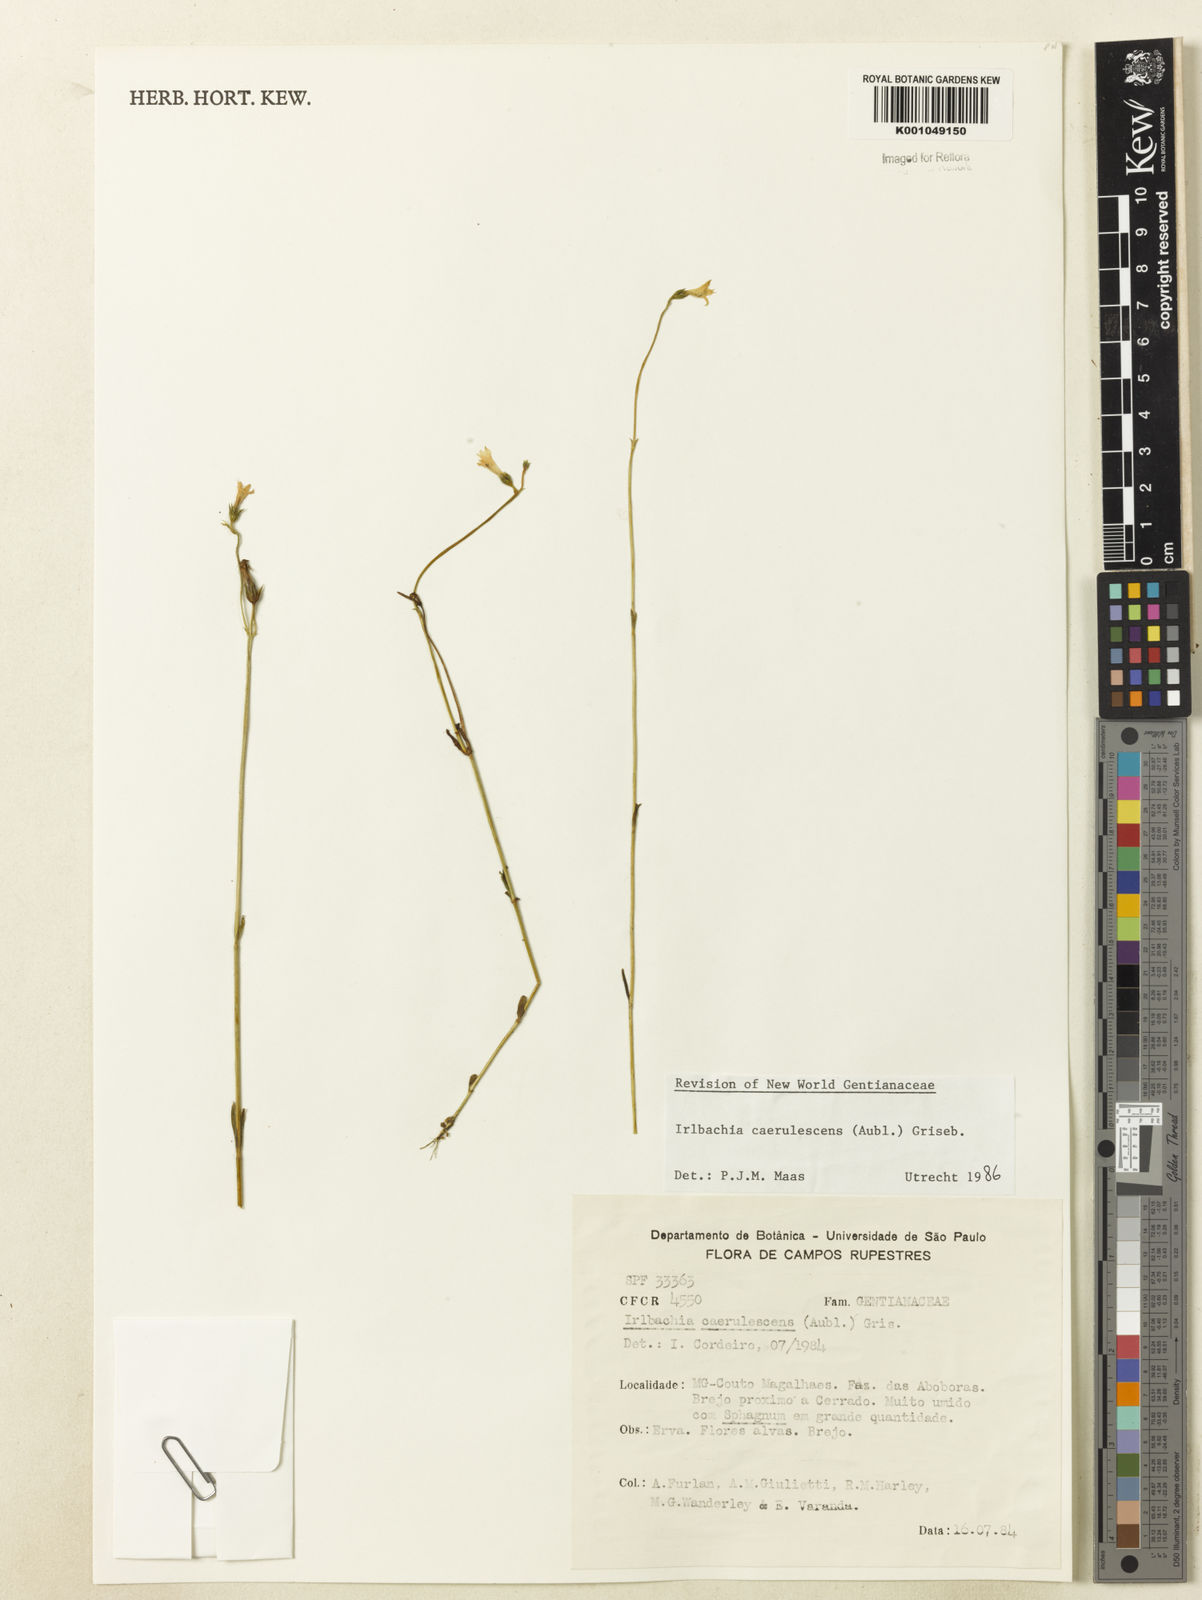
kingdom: Plantae
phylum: Tracheophyta
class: Magnoliopsida
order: Gentianales
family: Gentianaceae
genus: Tetrapollinia
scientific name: Tetrapollinia caerulescens
